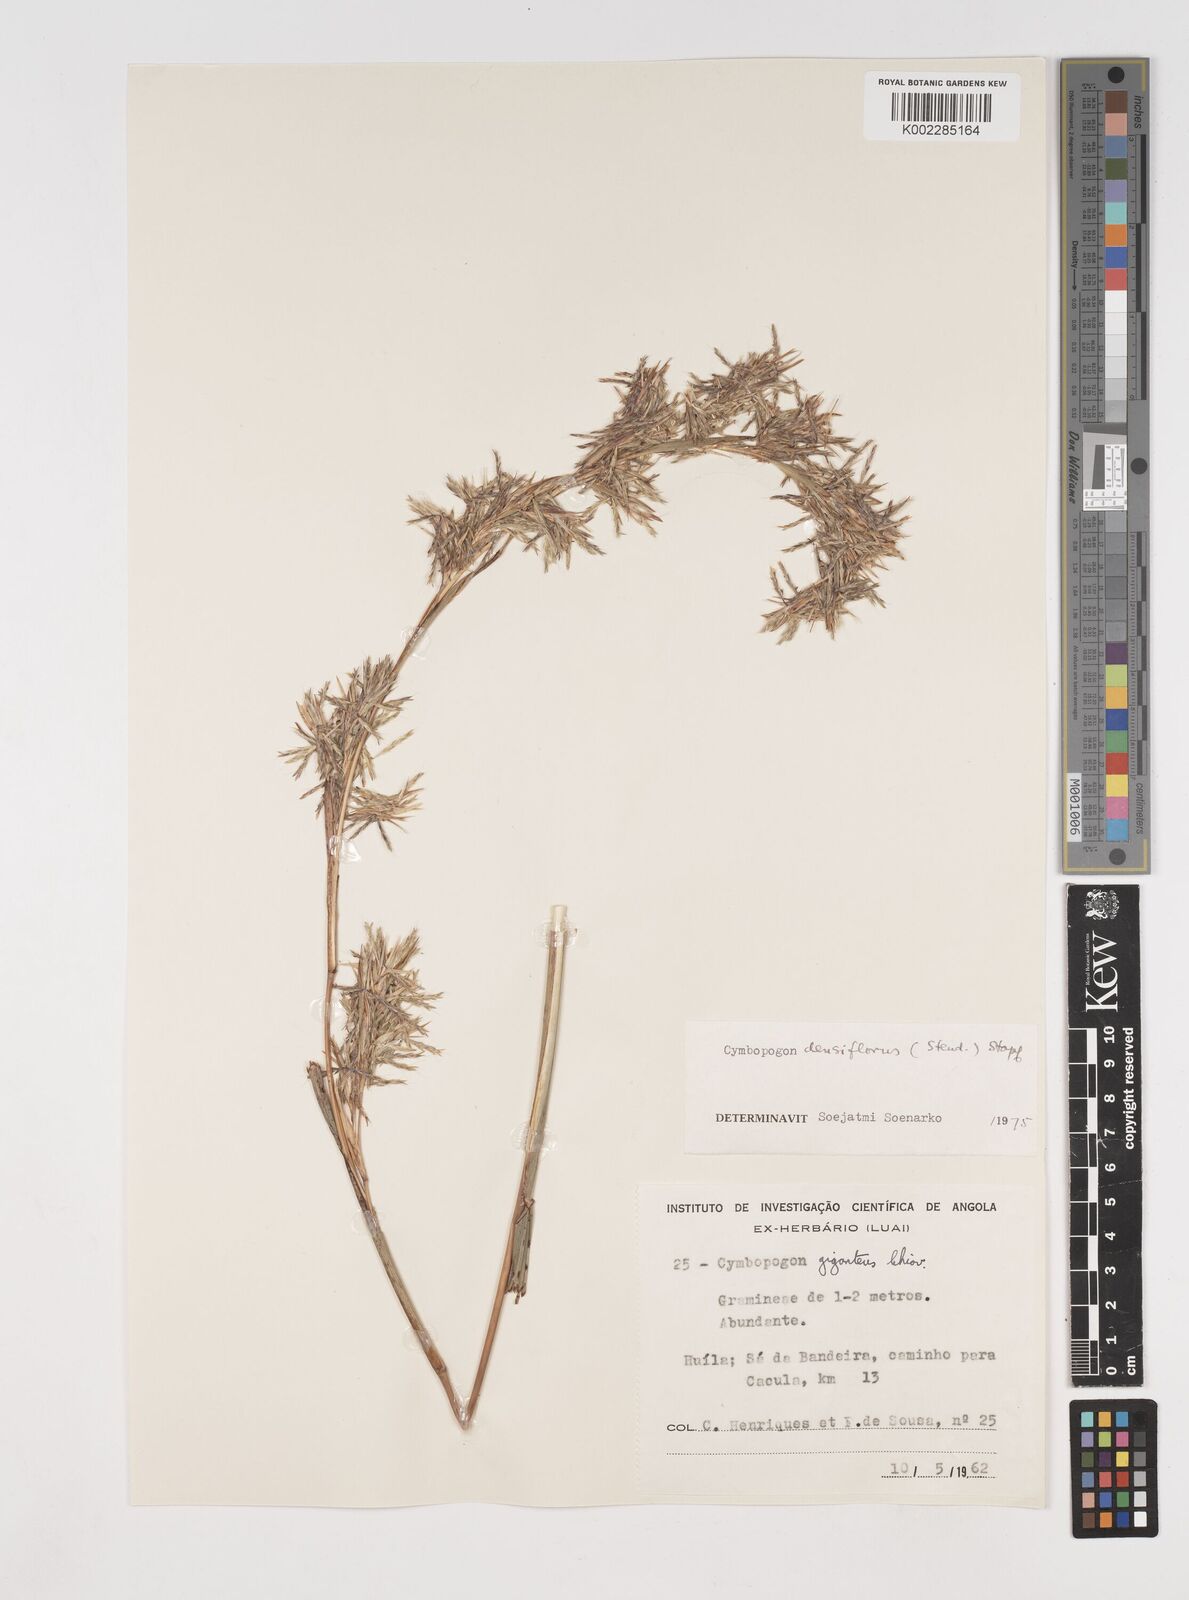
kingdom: Plantae
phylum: Tracheophyta
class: Liliopsida
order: Poales
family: Poaceae
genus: Cymbopogon
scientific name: Cymbopogon densiflorus
